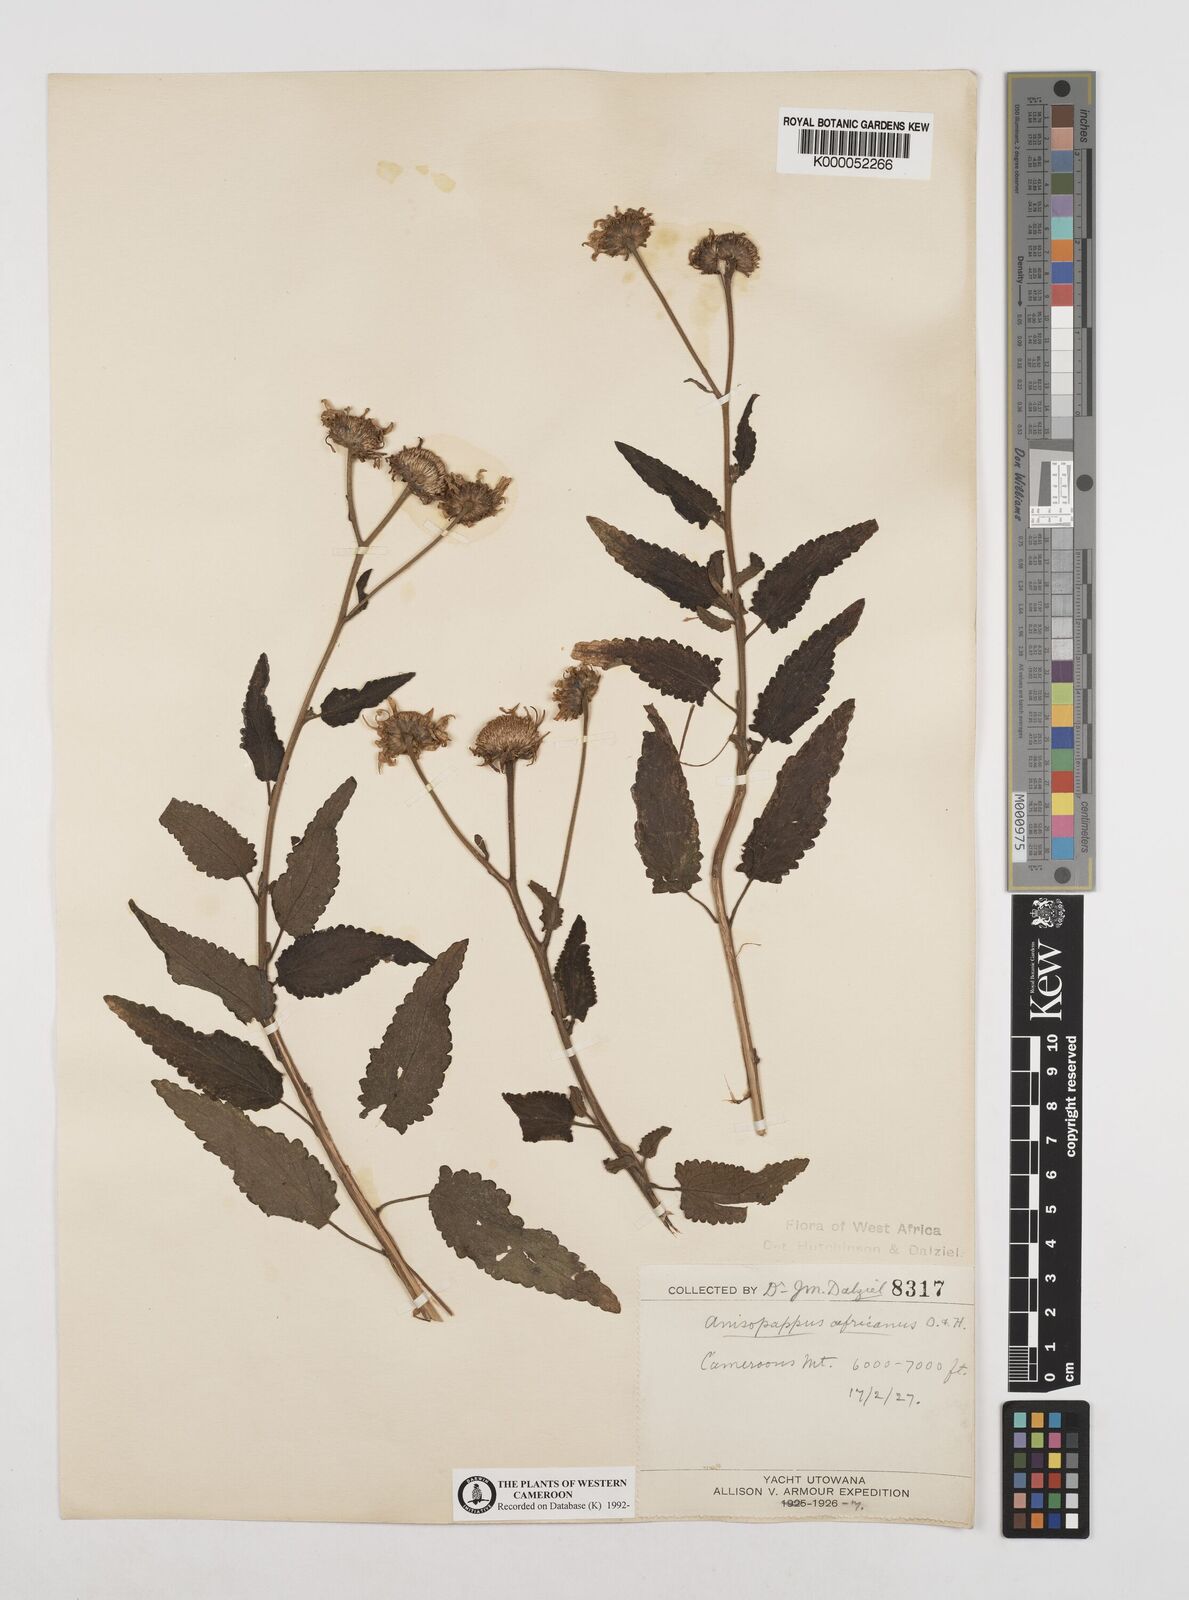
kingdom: Plantae
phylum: Tracheophyta
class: Magnoliopsida
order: Asterales
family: Asteraceae
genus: Anisopappus
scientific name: Anisopappus chinensis
